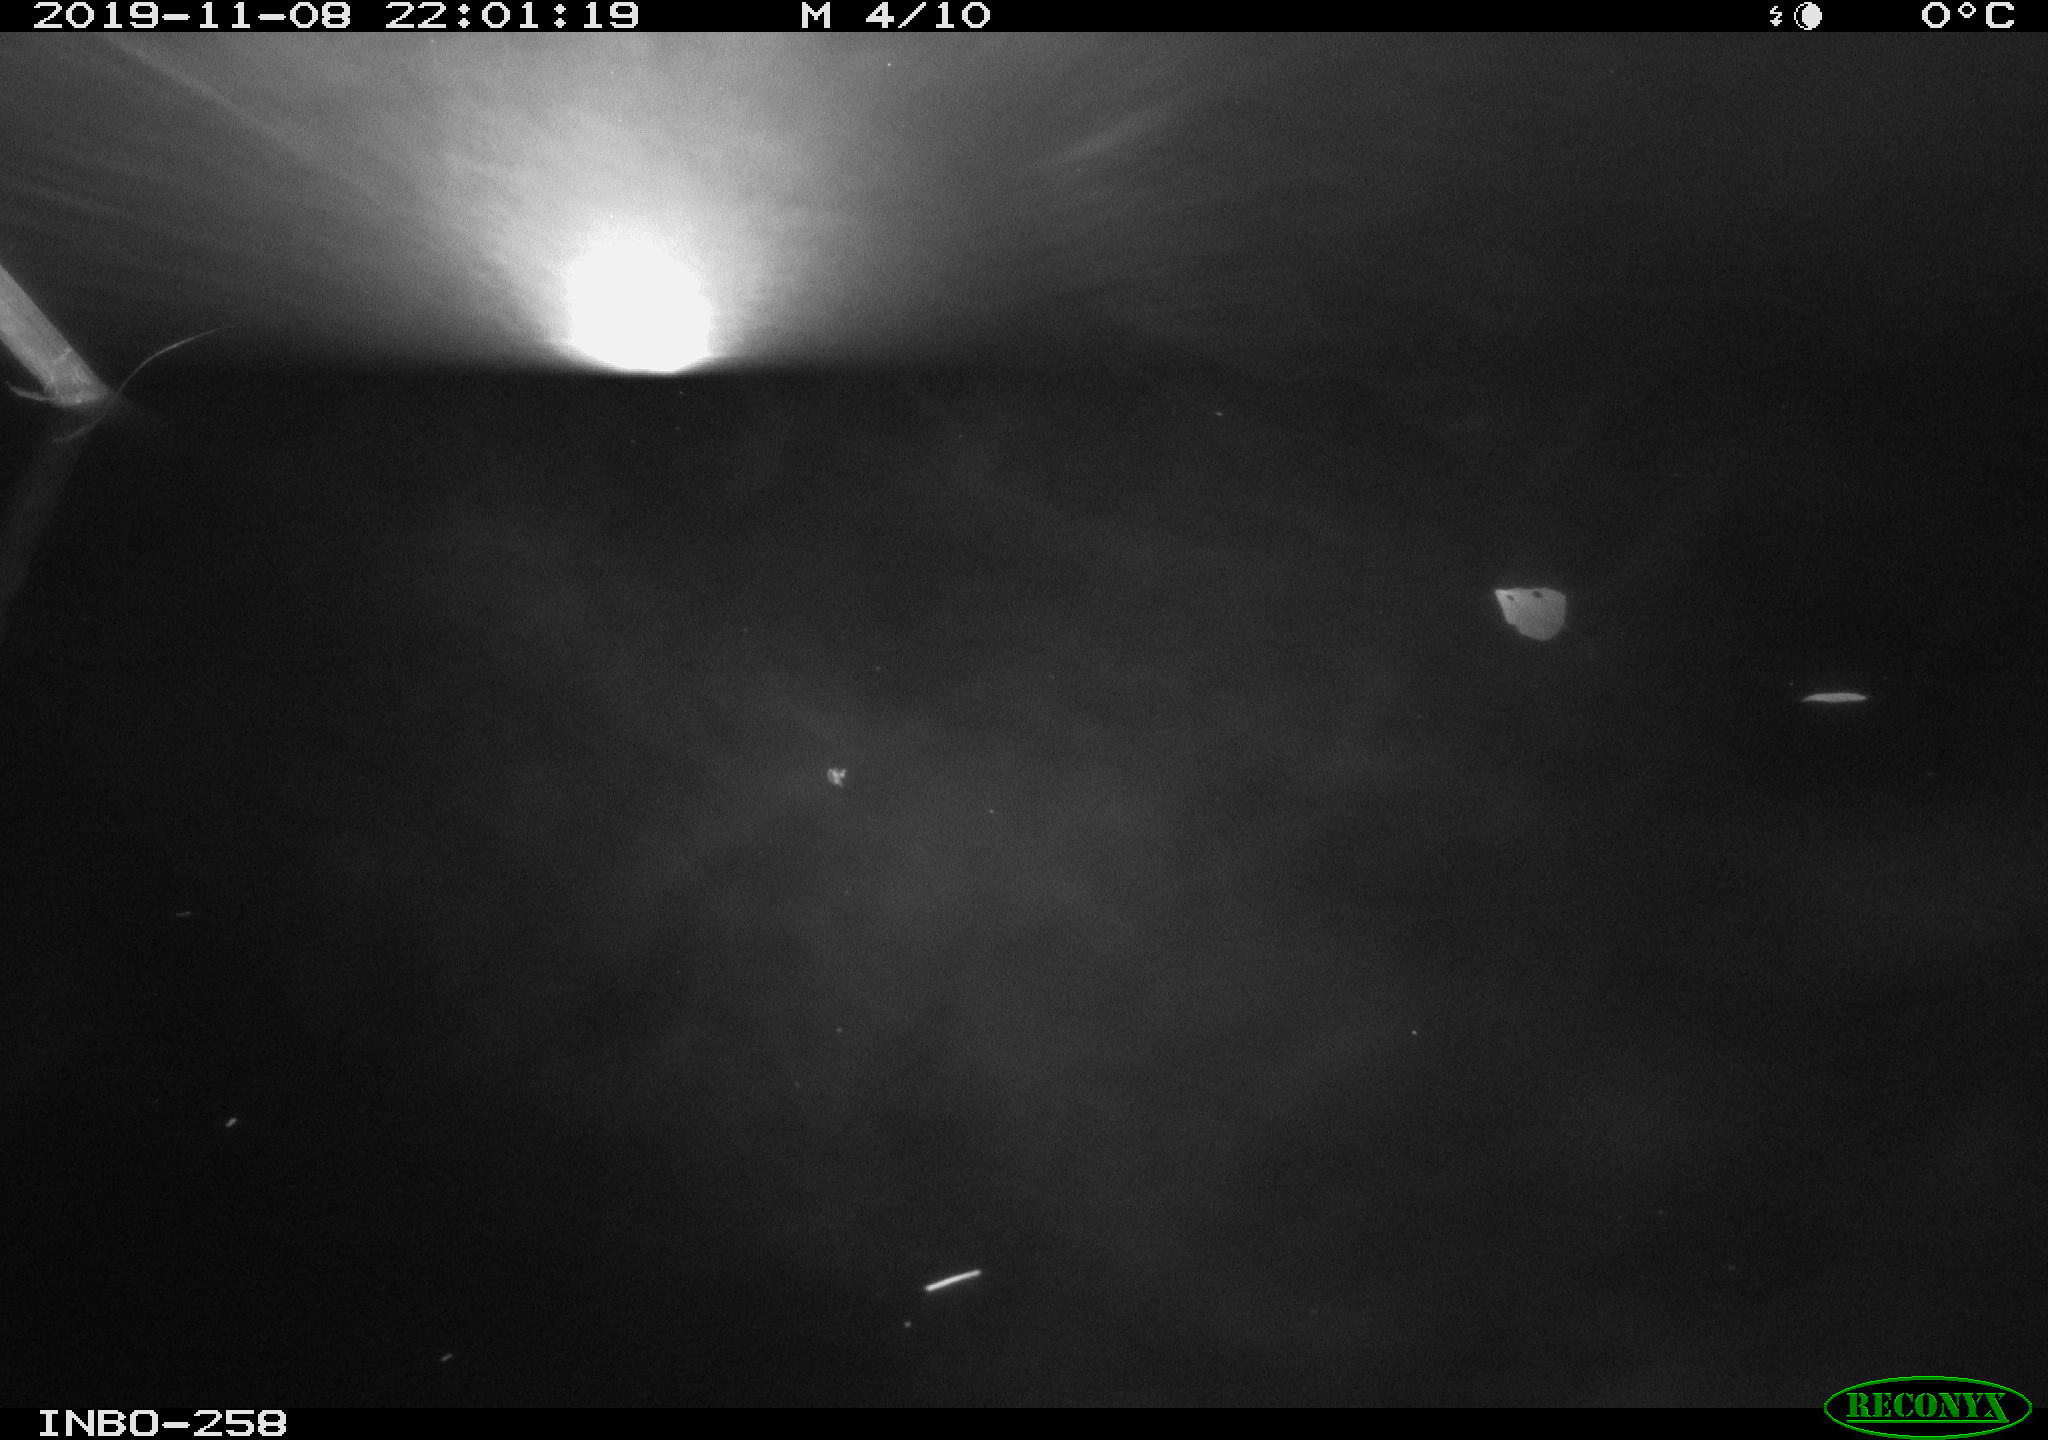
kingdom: Animalia
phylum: Chordata
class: Aves
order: Anseriformes
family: Anatidae
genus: Anas
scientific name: Anas platyrhynchos
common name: Mallard
